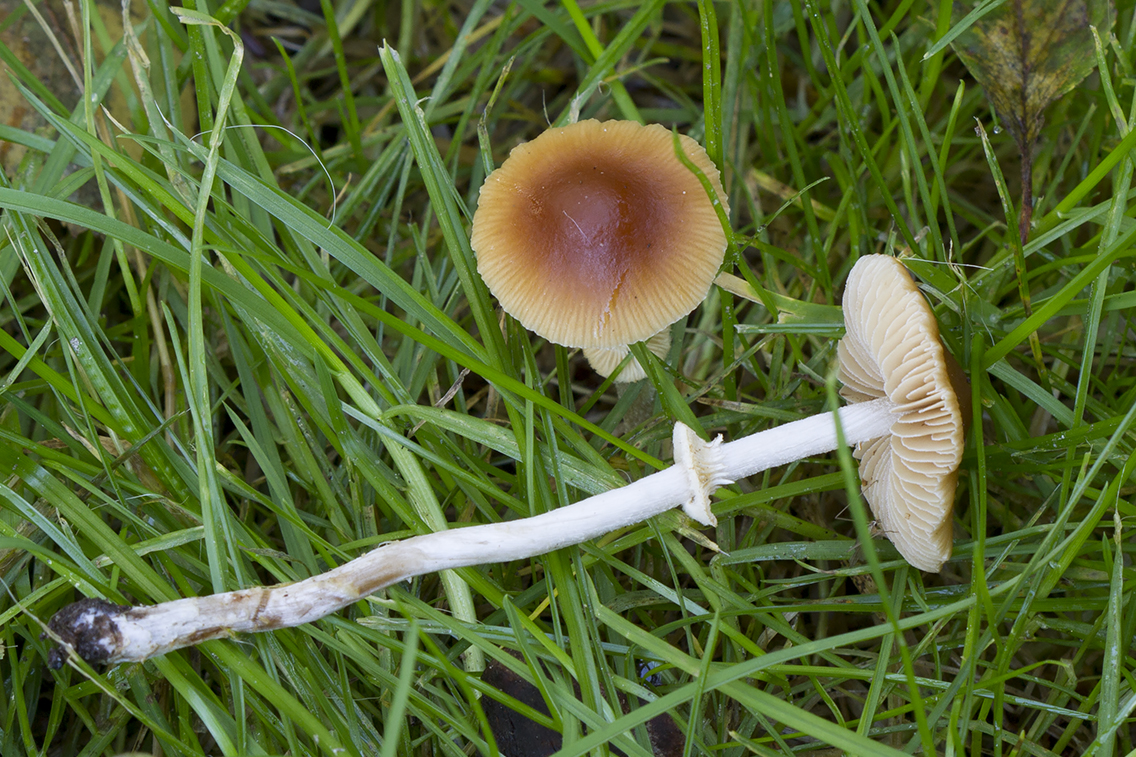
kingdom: Fungi
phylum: Basidiomycota
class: Agaricomycetes
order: Agaricales
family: Bolbitiaceae
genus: Conocybe
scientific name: Conocybe arrhenii
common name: ring-dansehat
